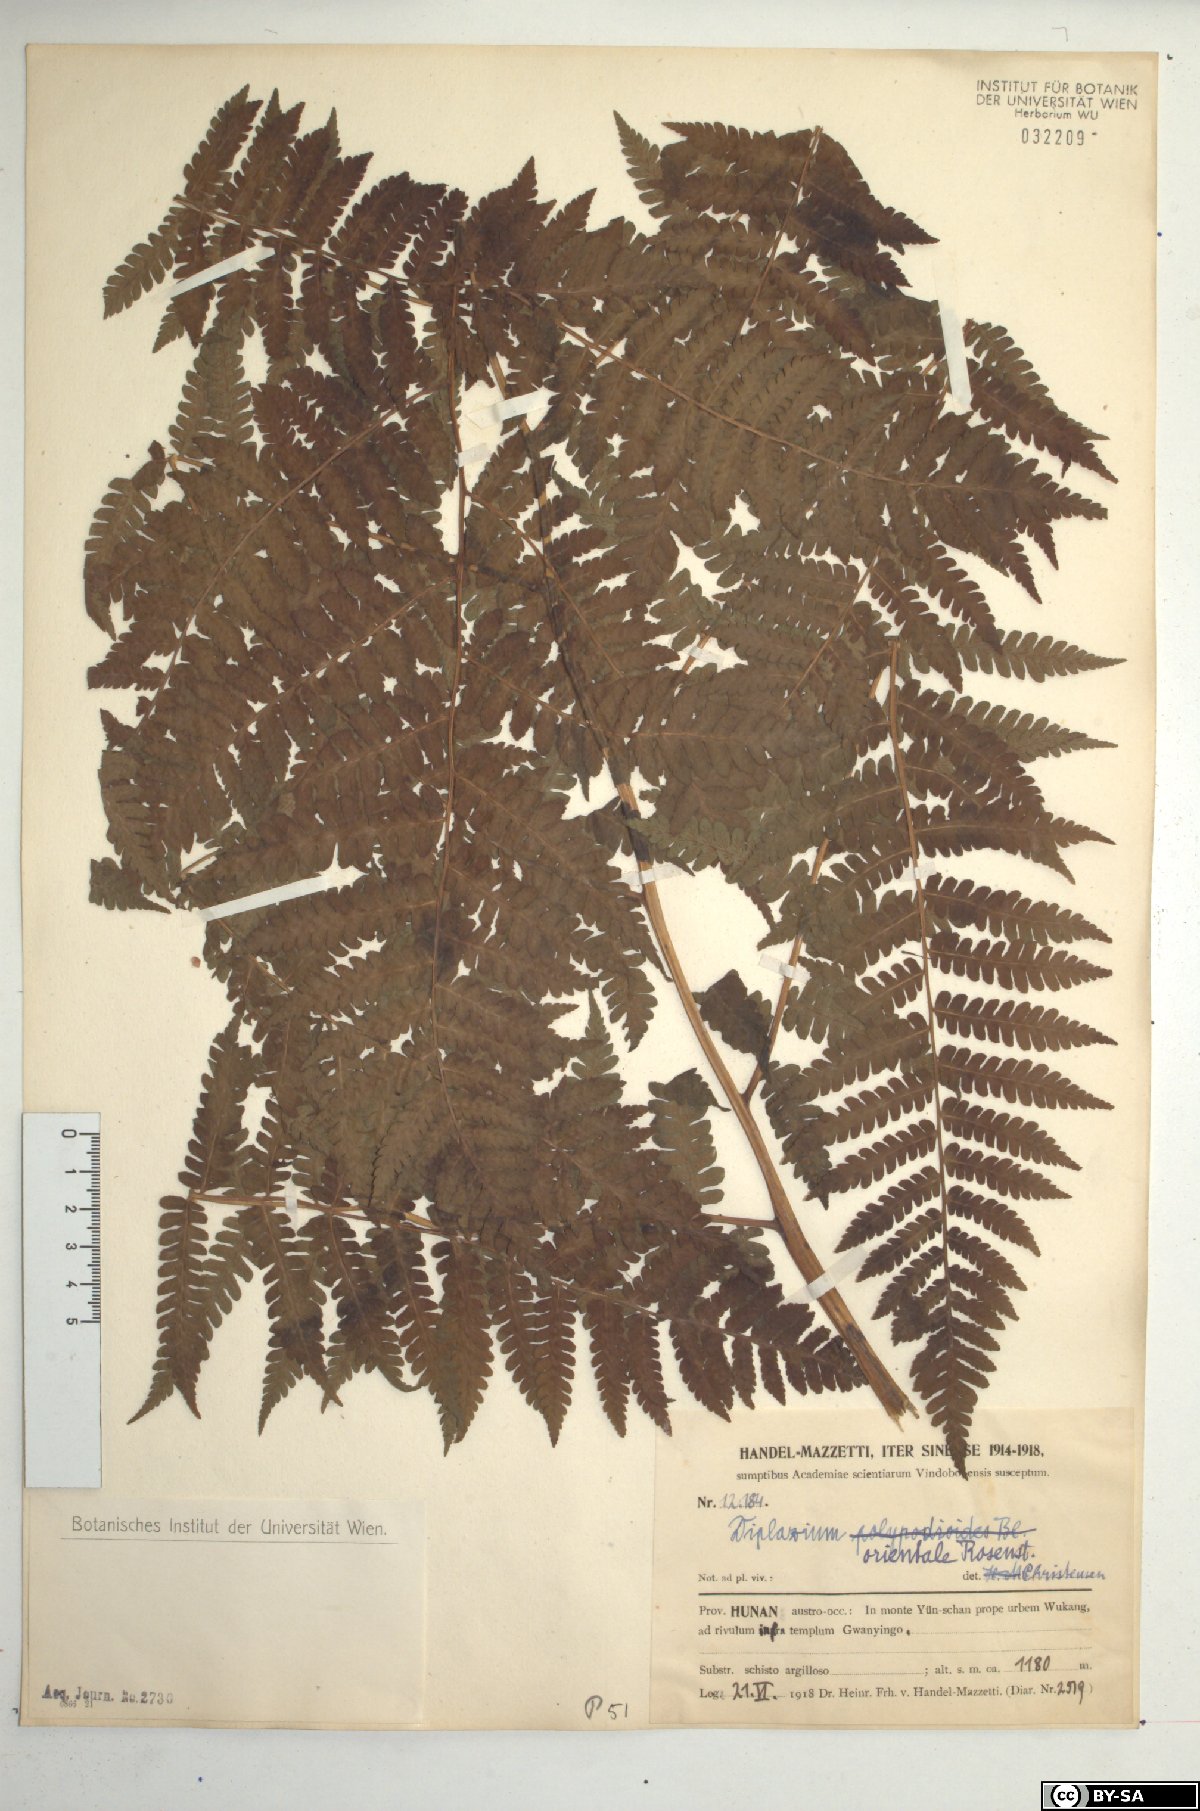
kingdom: Plantae
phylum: Tracheophyta
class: Polypodiopsida
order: Polypodiales
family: Athyriaceae
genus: Diplazium
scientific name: Diplazium chinense
